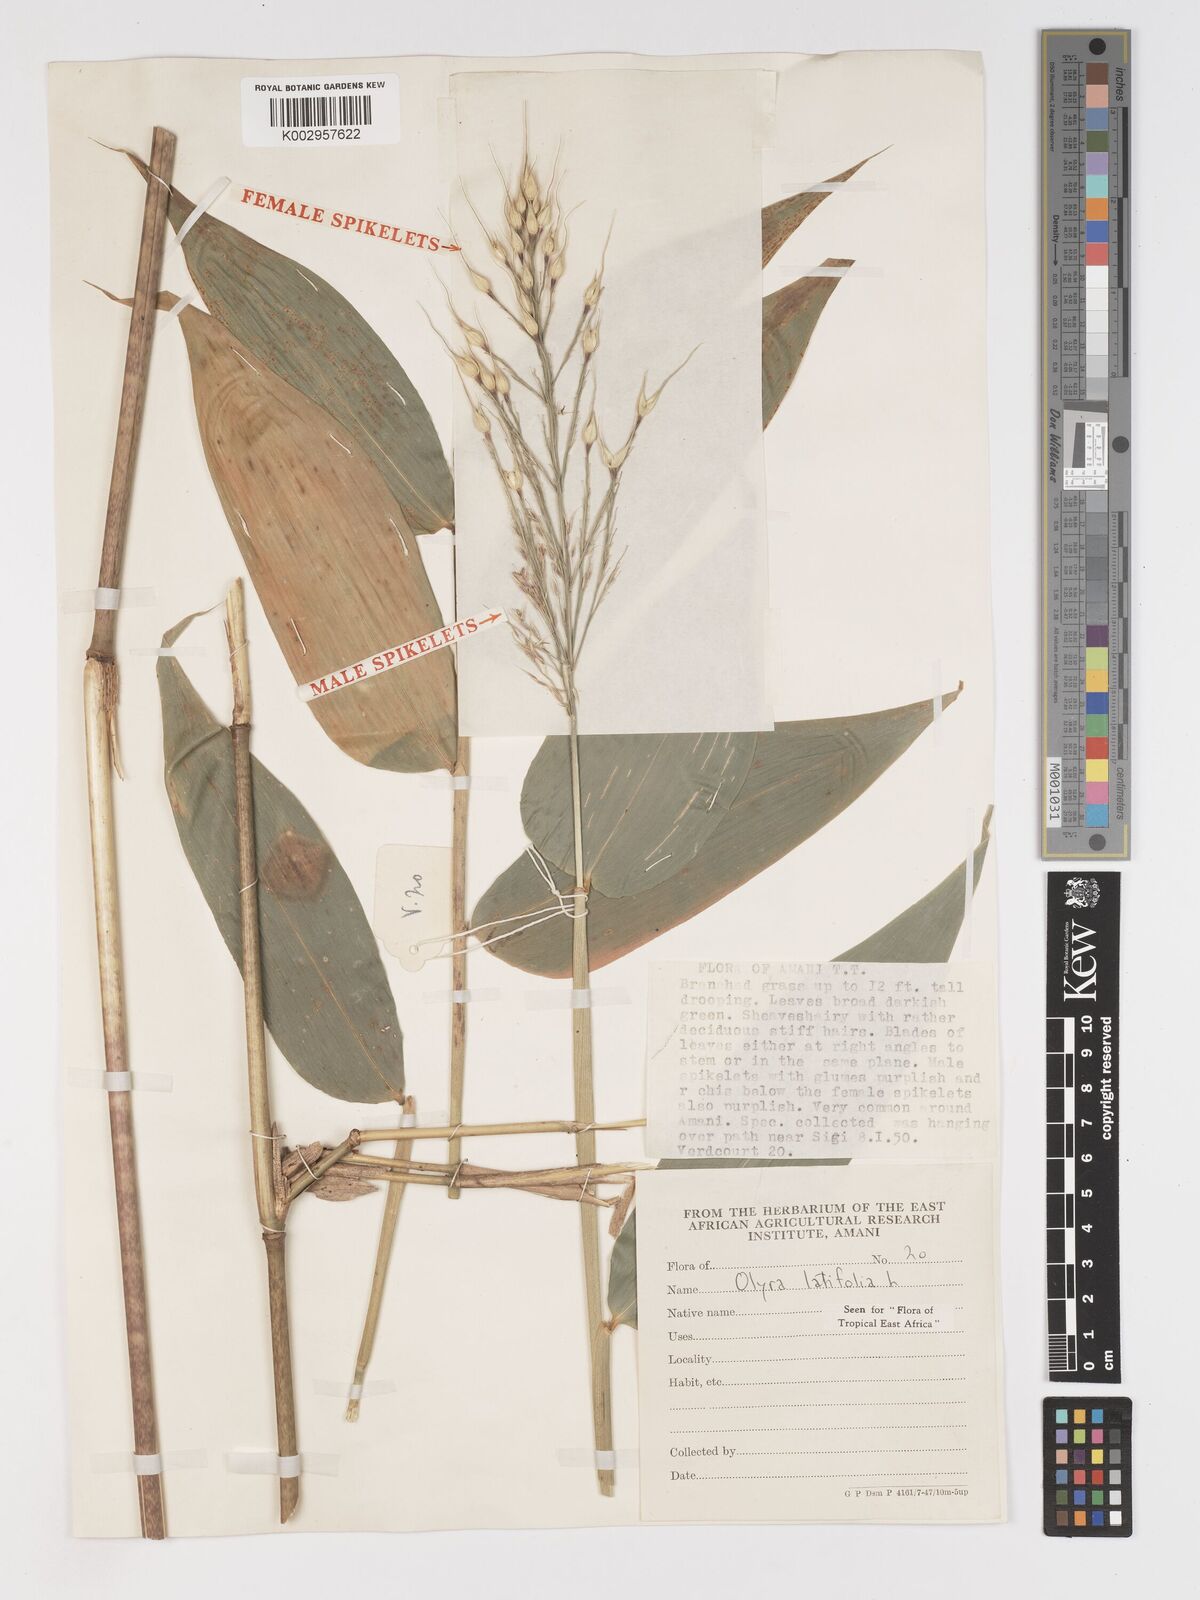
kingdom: Plantae
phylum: Tracheophyta
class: Liliopsida
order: Poales
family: Poaceae
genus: Olyra
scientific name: Olyra latifolia
